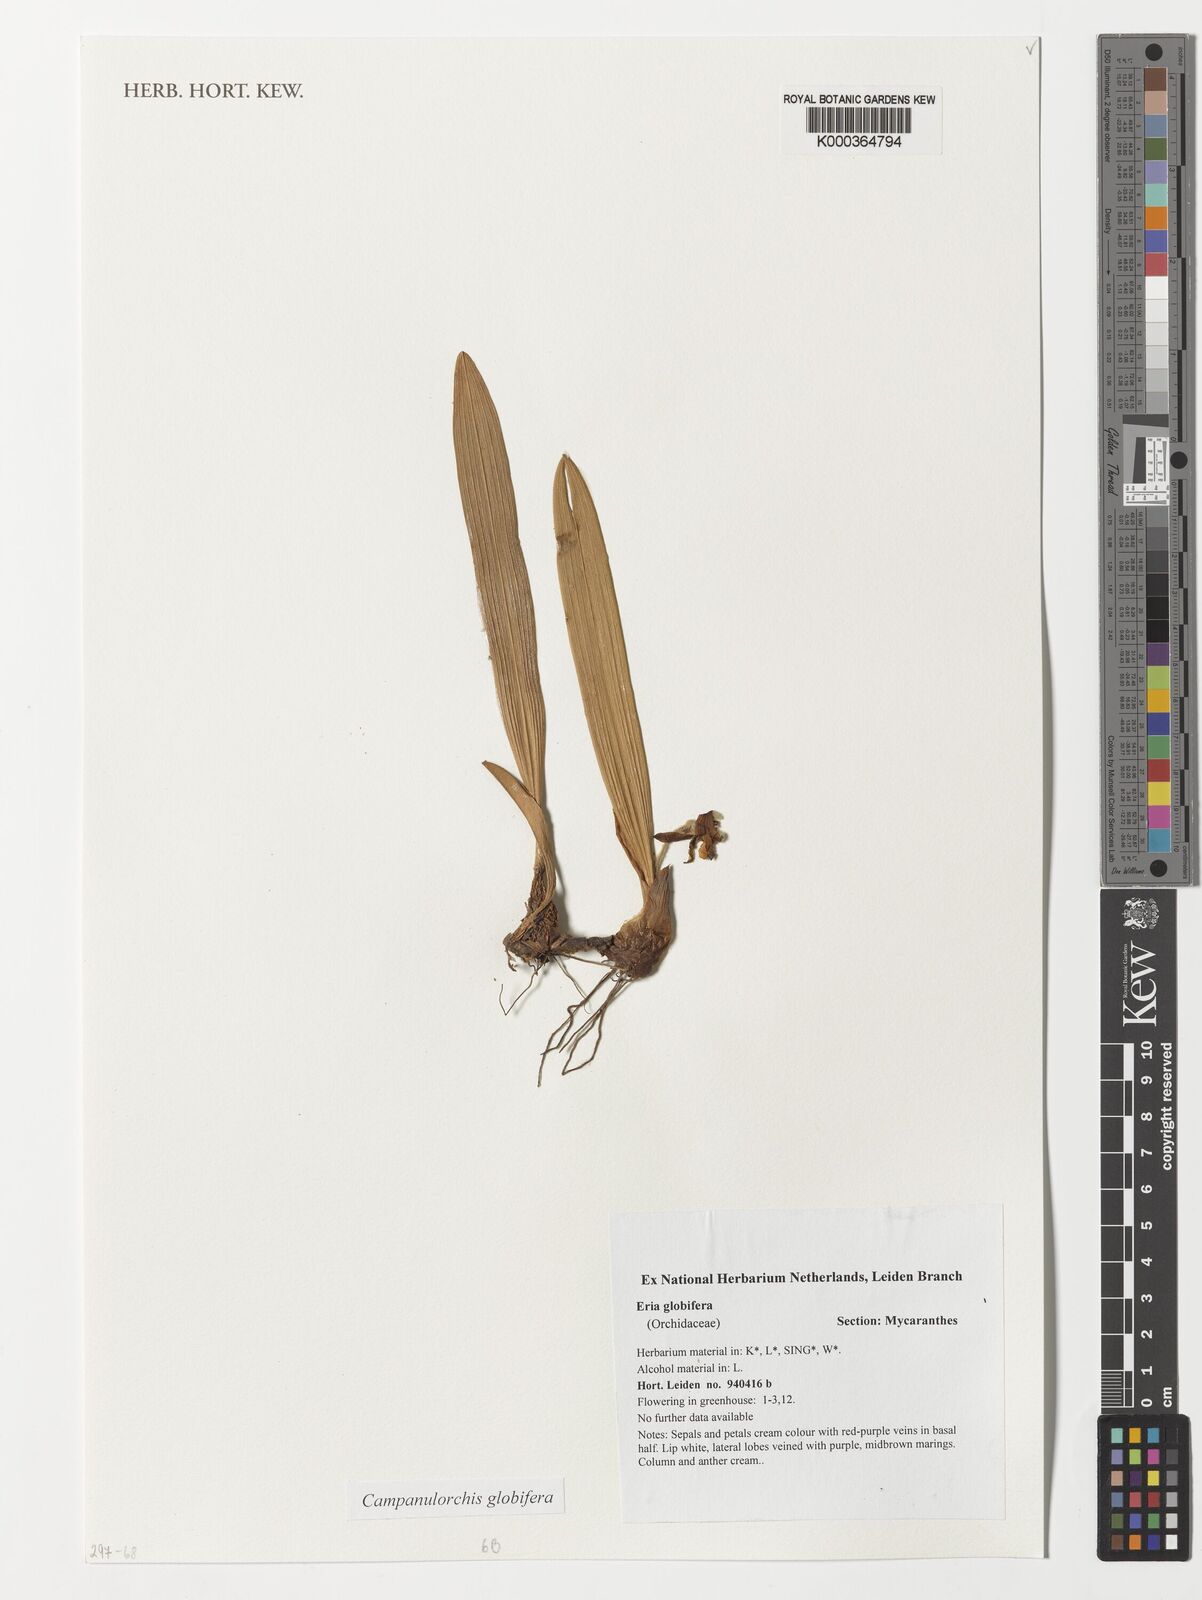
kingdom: Plantae
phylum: Tracheophyta
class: Liliopsida
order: Asparagales
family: Orchidaceae
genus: Campanulorchis
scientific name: Campanulorchis globifera
